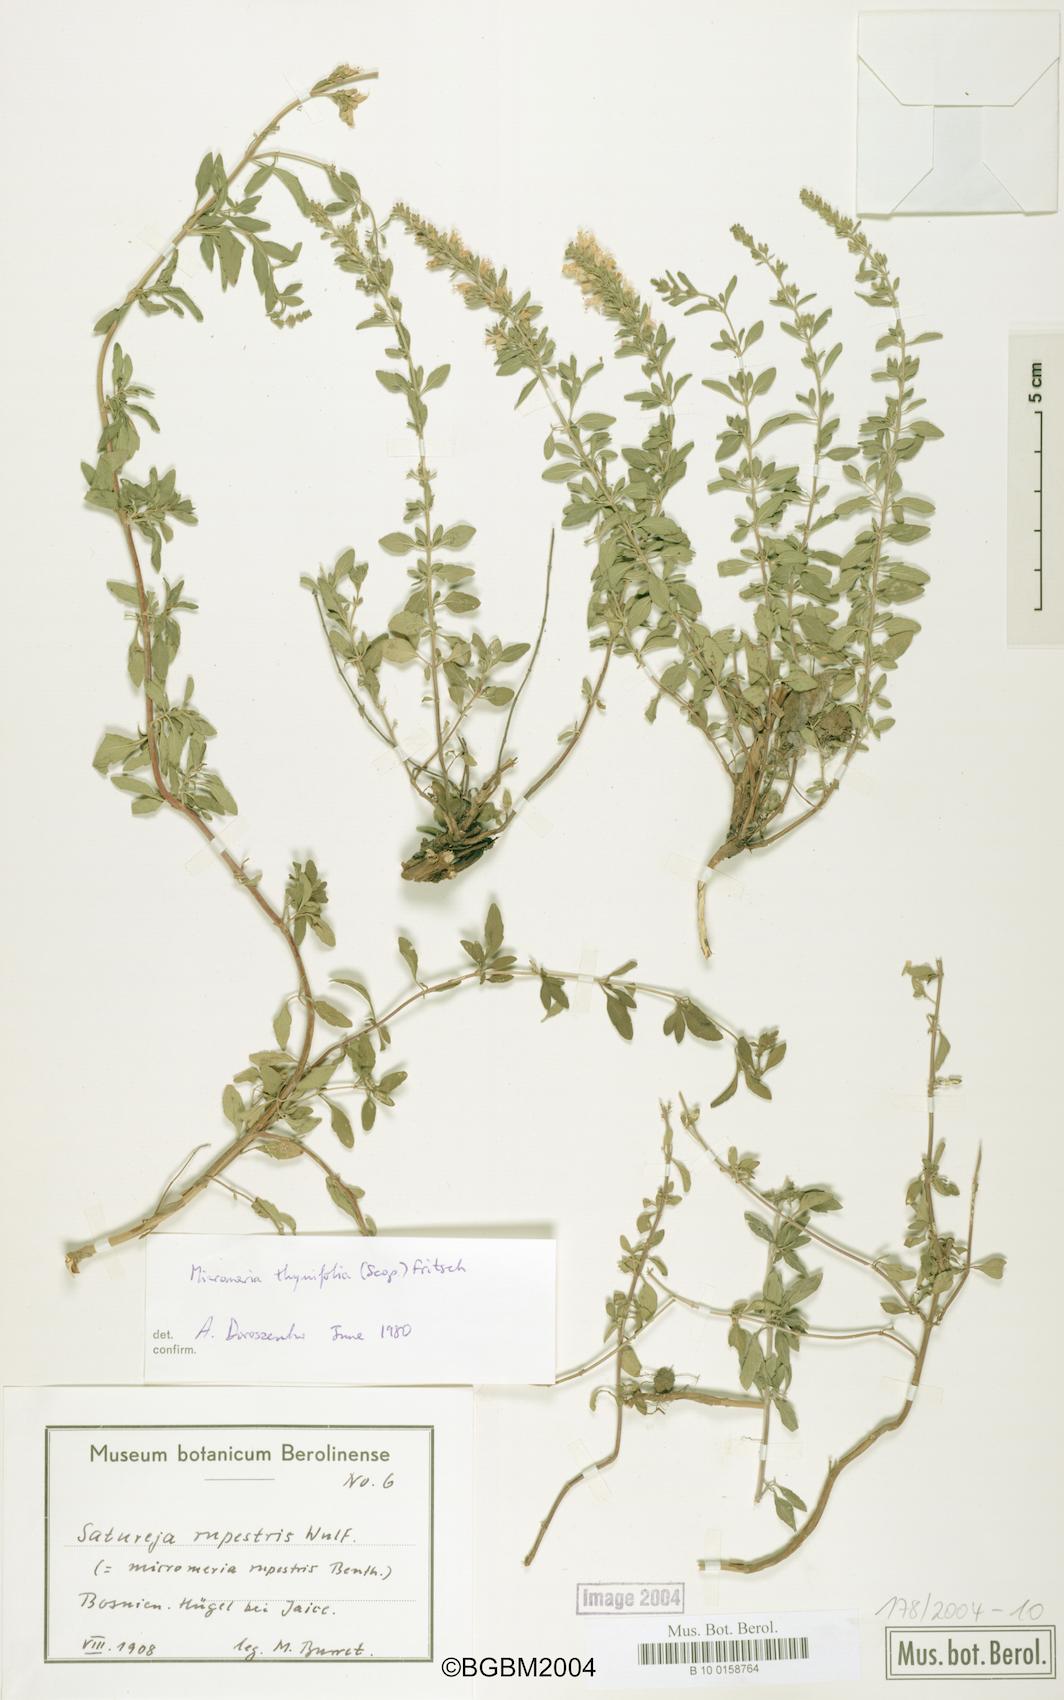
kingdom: Plantae
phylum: Tracheophyta
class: Magnoliopsida
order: Lamiales
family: Lamiaceae
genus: Clinopodium
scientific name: Clinopodium hostii
